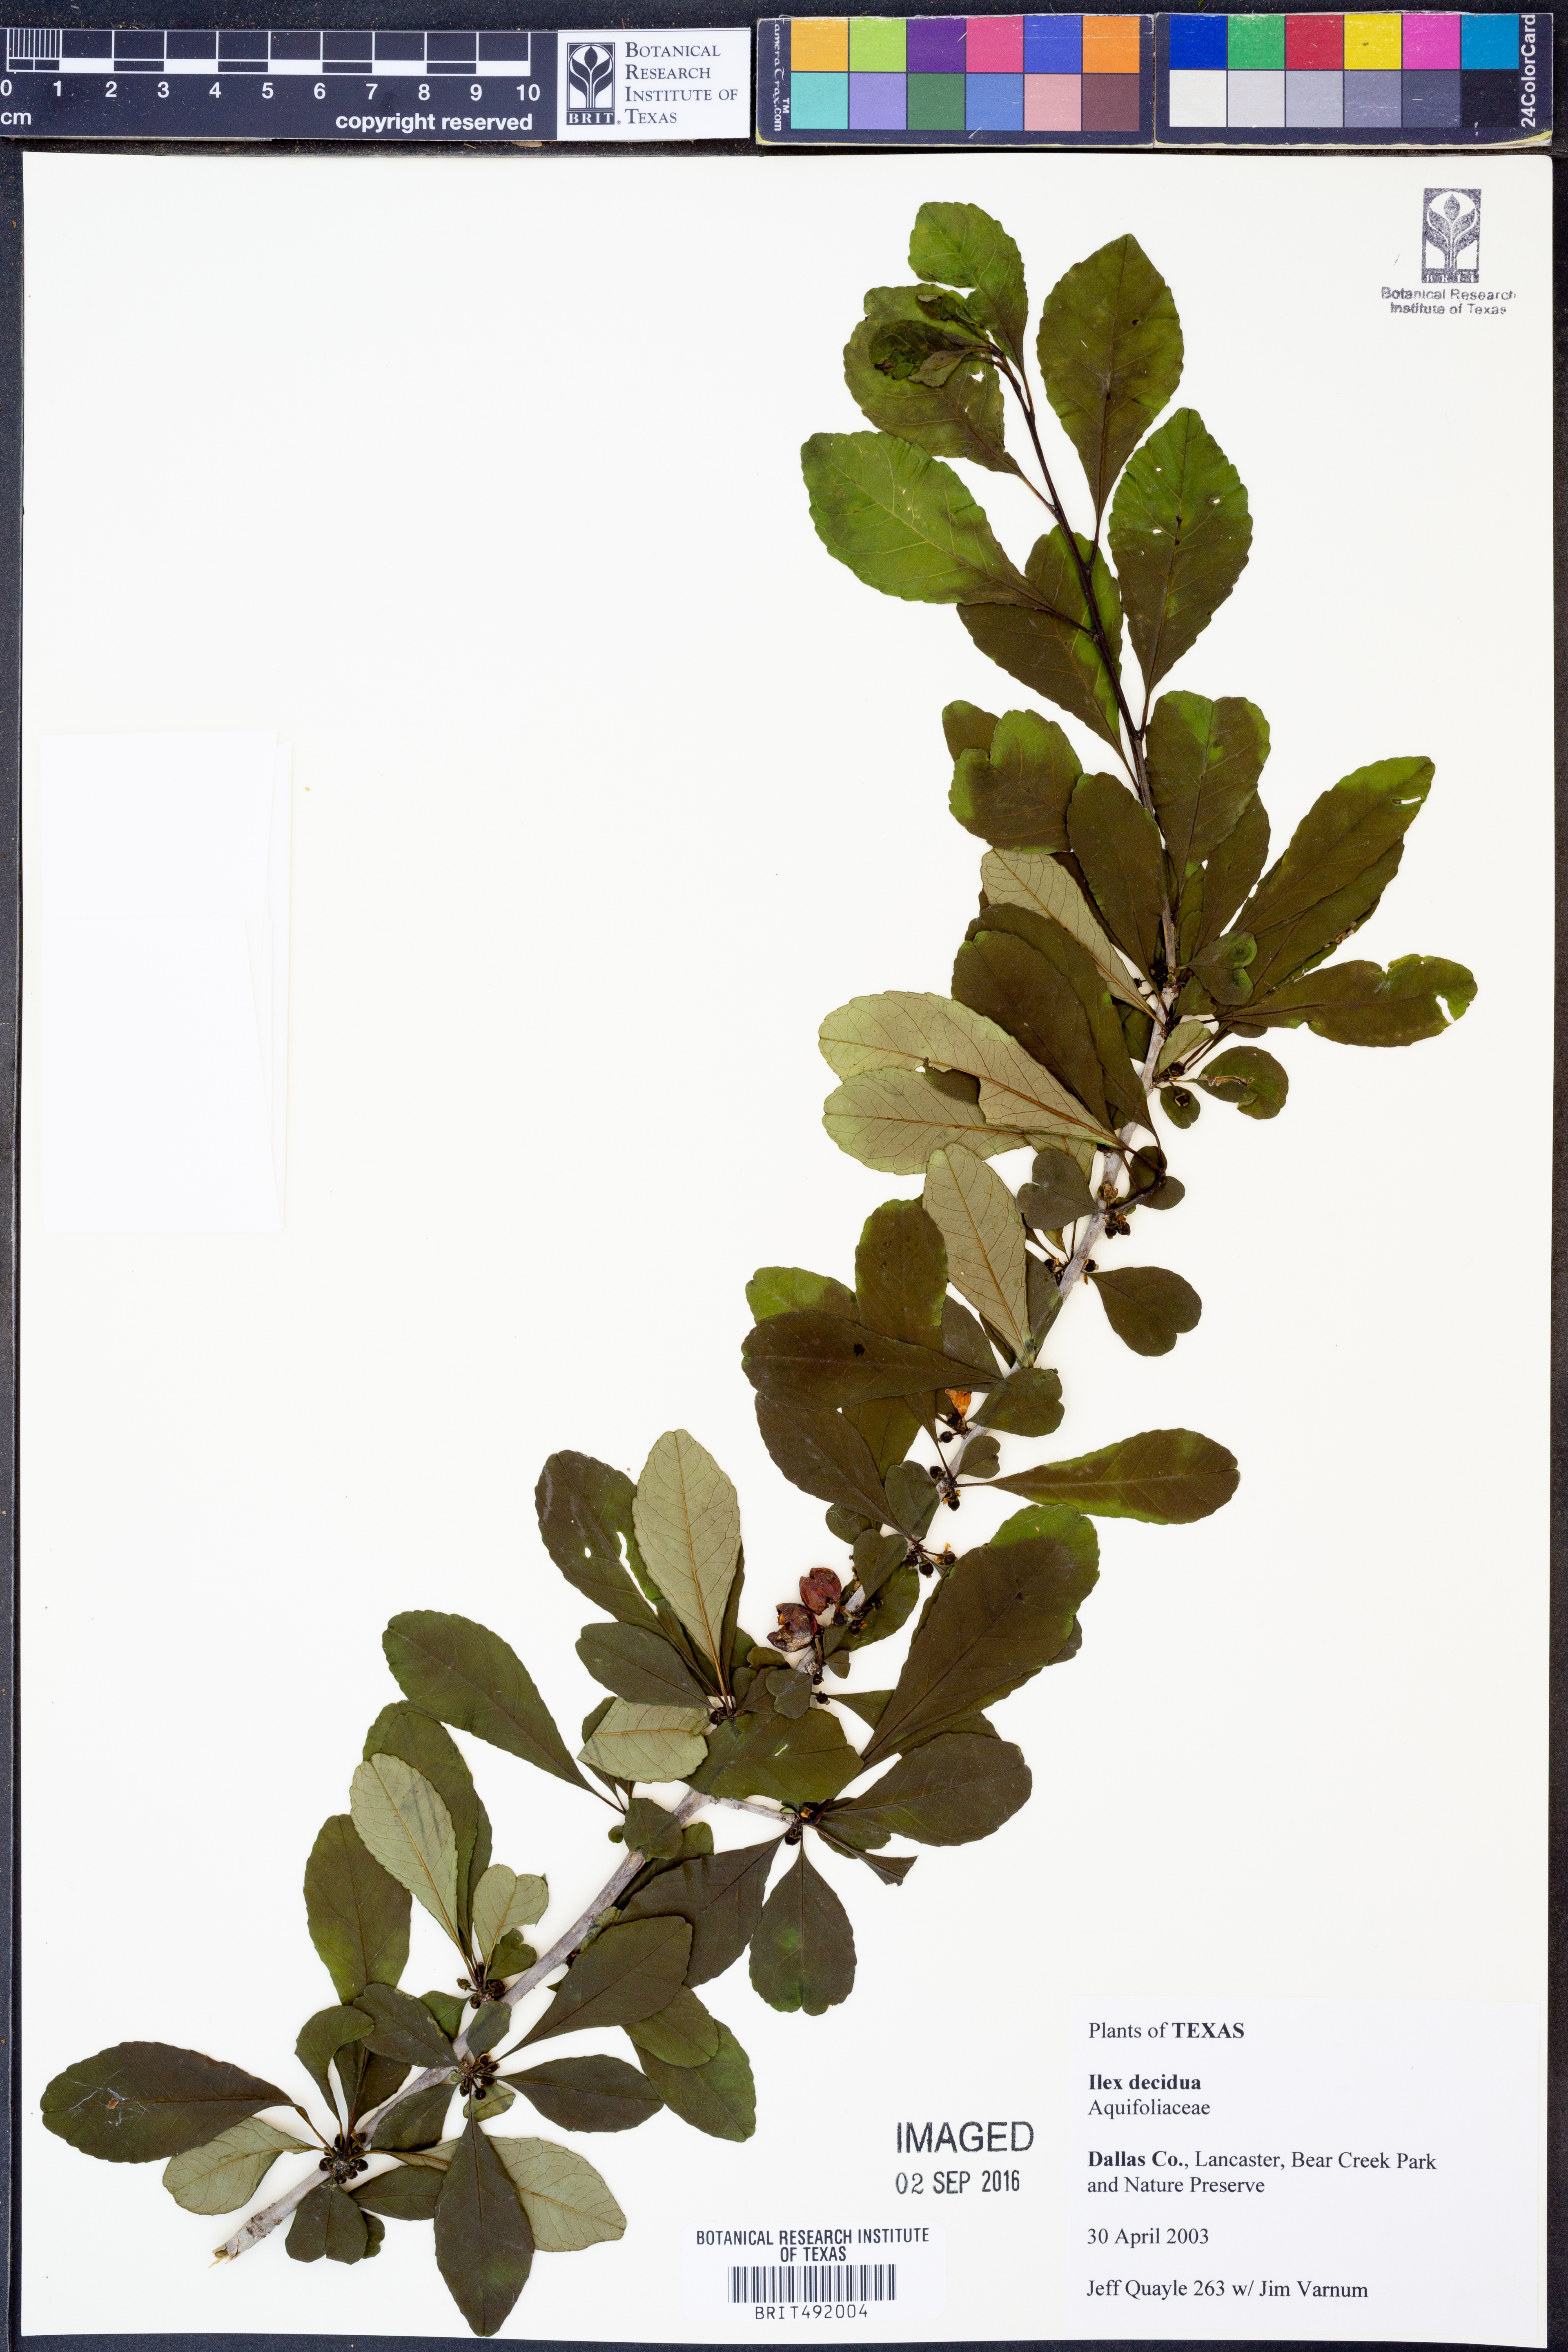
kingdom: Plantae
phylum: Tracheophyta
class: Magnoliopsida
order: Aquifoliales
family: Aquifoliaceae
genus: Ilex
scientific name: Ilex decidua
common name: Possum-haw
